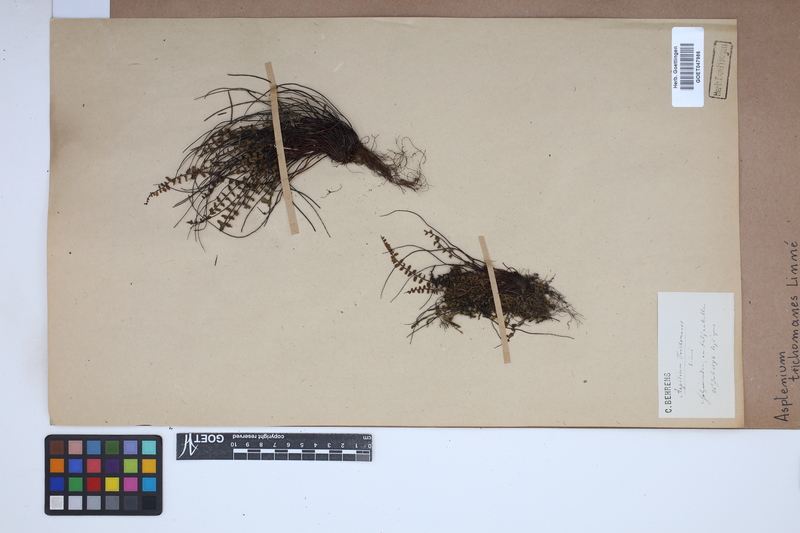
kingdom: Plantae
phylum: Tracheophyta
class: Polypodiopsida
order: Polypodiales
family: Aspleniaceae
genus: Asplenium
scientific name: Asplenium trichomanes
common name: Maidenhair spleenwort
